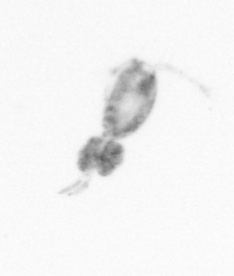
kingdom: Animalia
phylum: Arthropoda
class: Copepoda
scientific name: Copepoda
